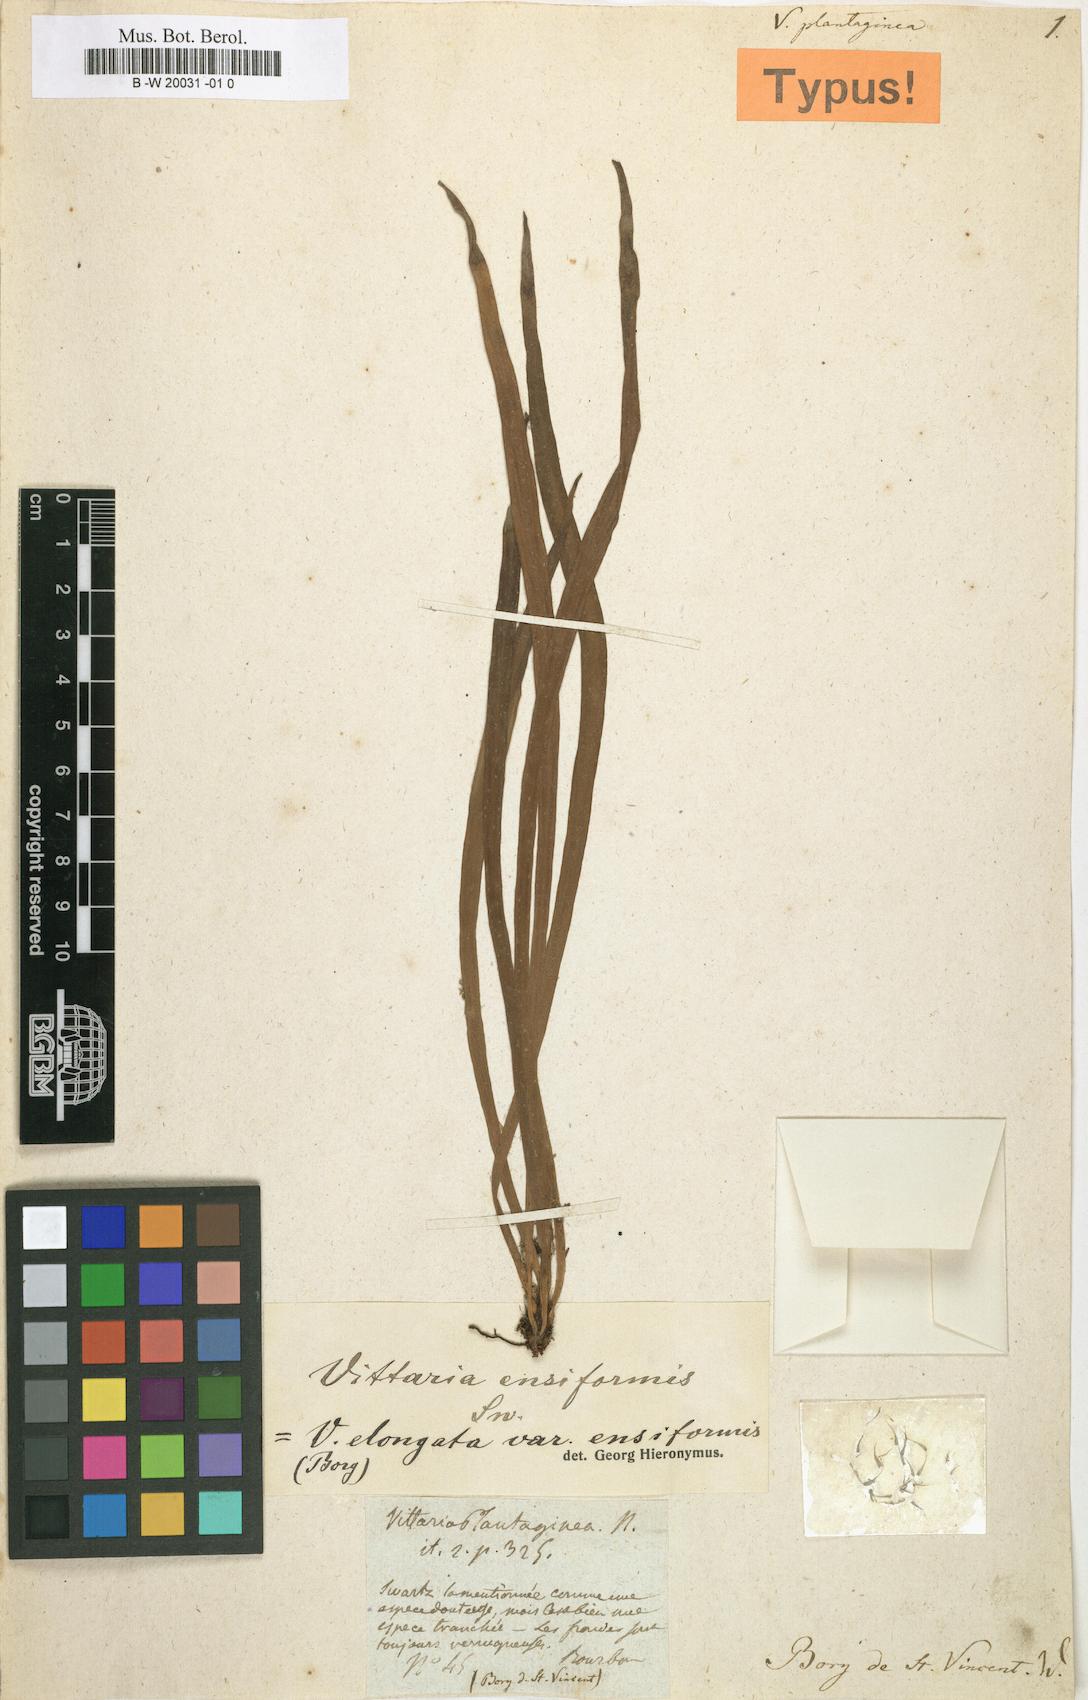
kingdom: Plantae
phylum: Tracheophyta
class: Polypodiopsida
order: Polypodiales
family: Pteridaceae
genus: Haplopteris
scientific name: Haplopteris
